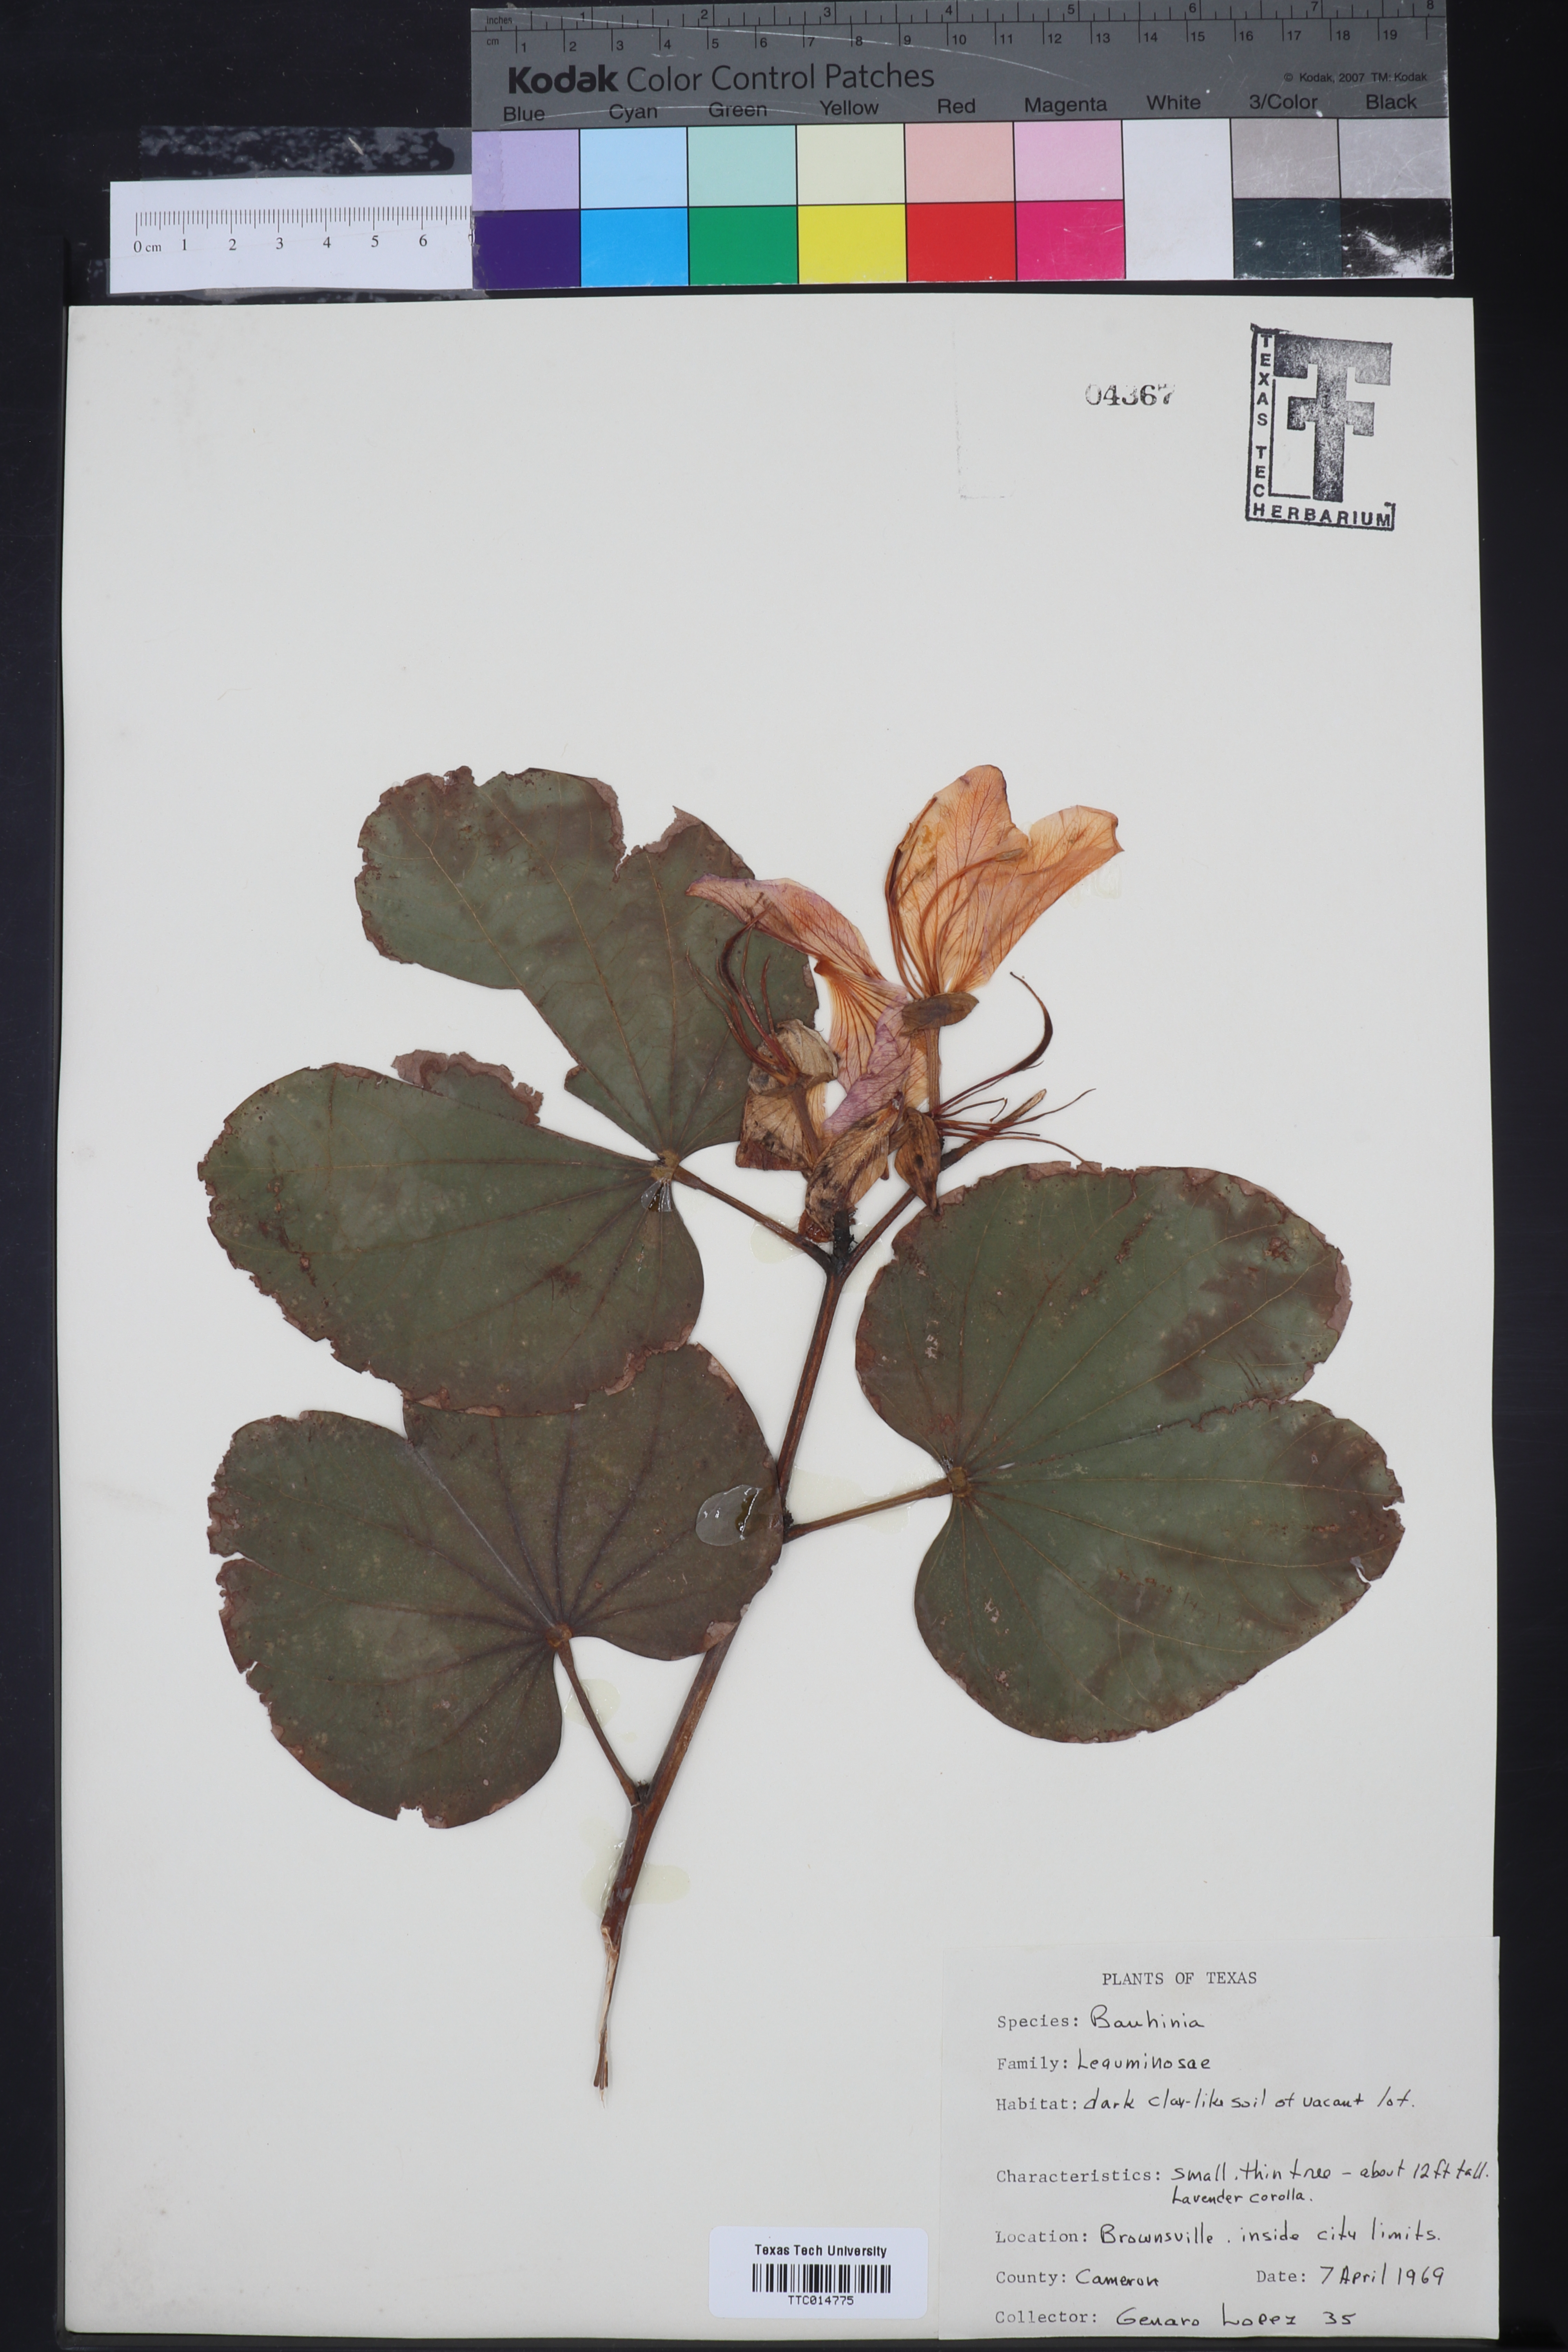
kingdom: Plantae
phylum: Tracheophyta
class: Magnoliopsida
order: Fabales
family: Fabaceae
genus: Bauhinia
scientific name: Bauhinia
